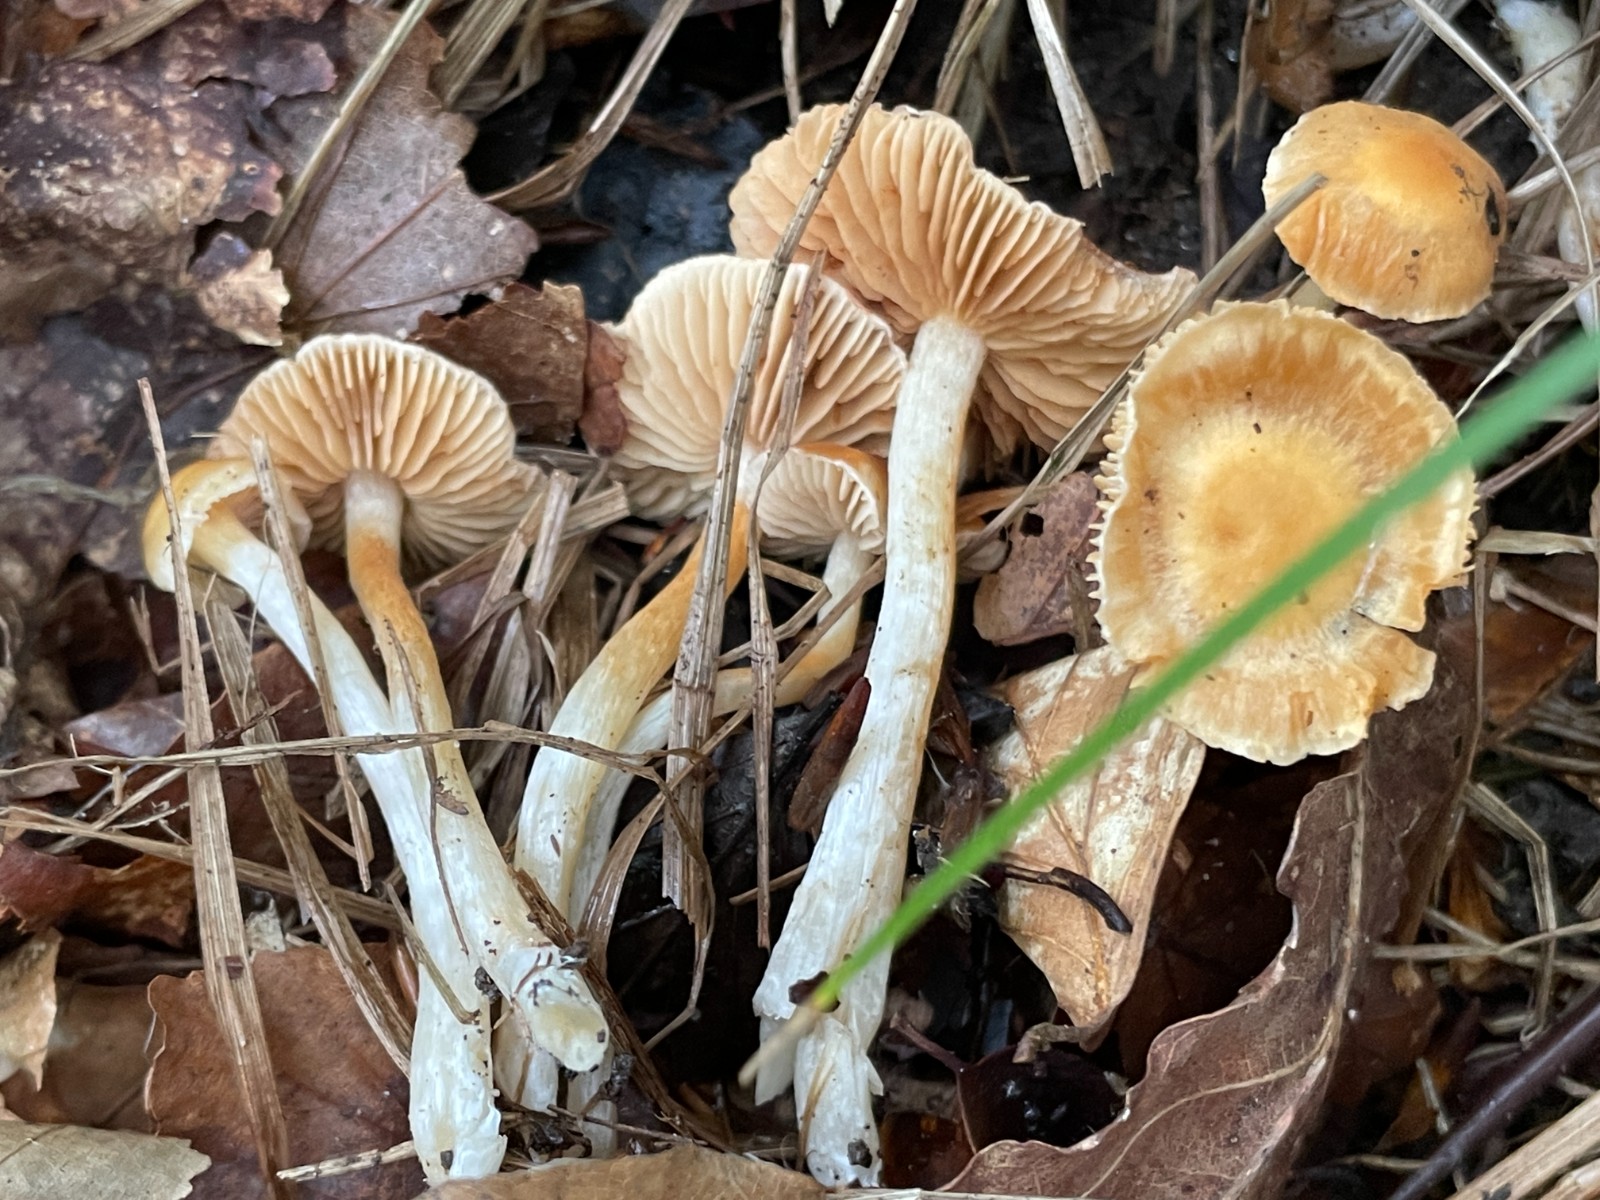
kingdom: Fungi
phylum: Basidiomycota
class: Agaricomycetes
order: Agaricales
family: Cortinariaceae
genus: Cortinarius
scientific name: Cortinarius croceocristallinus
